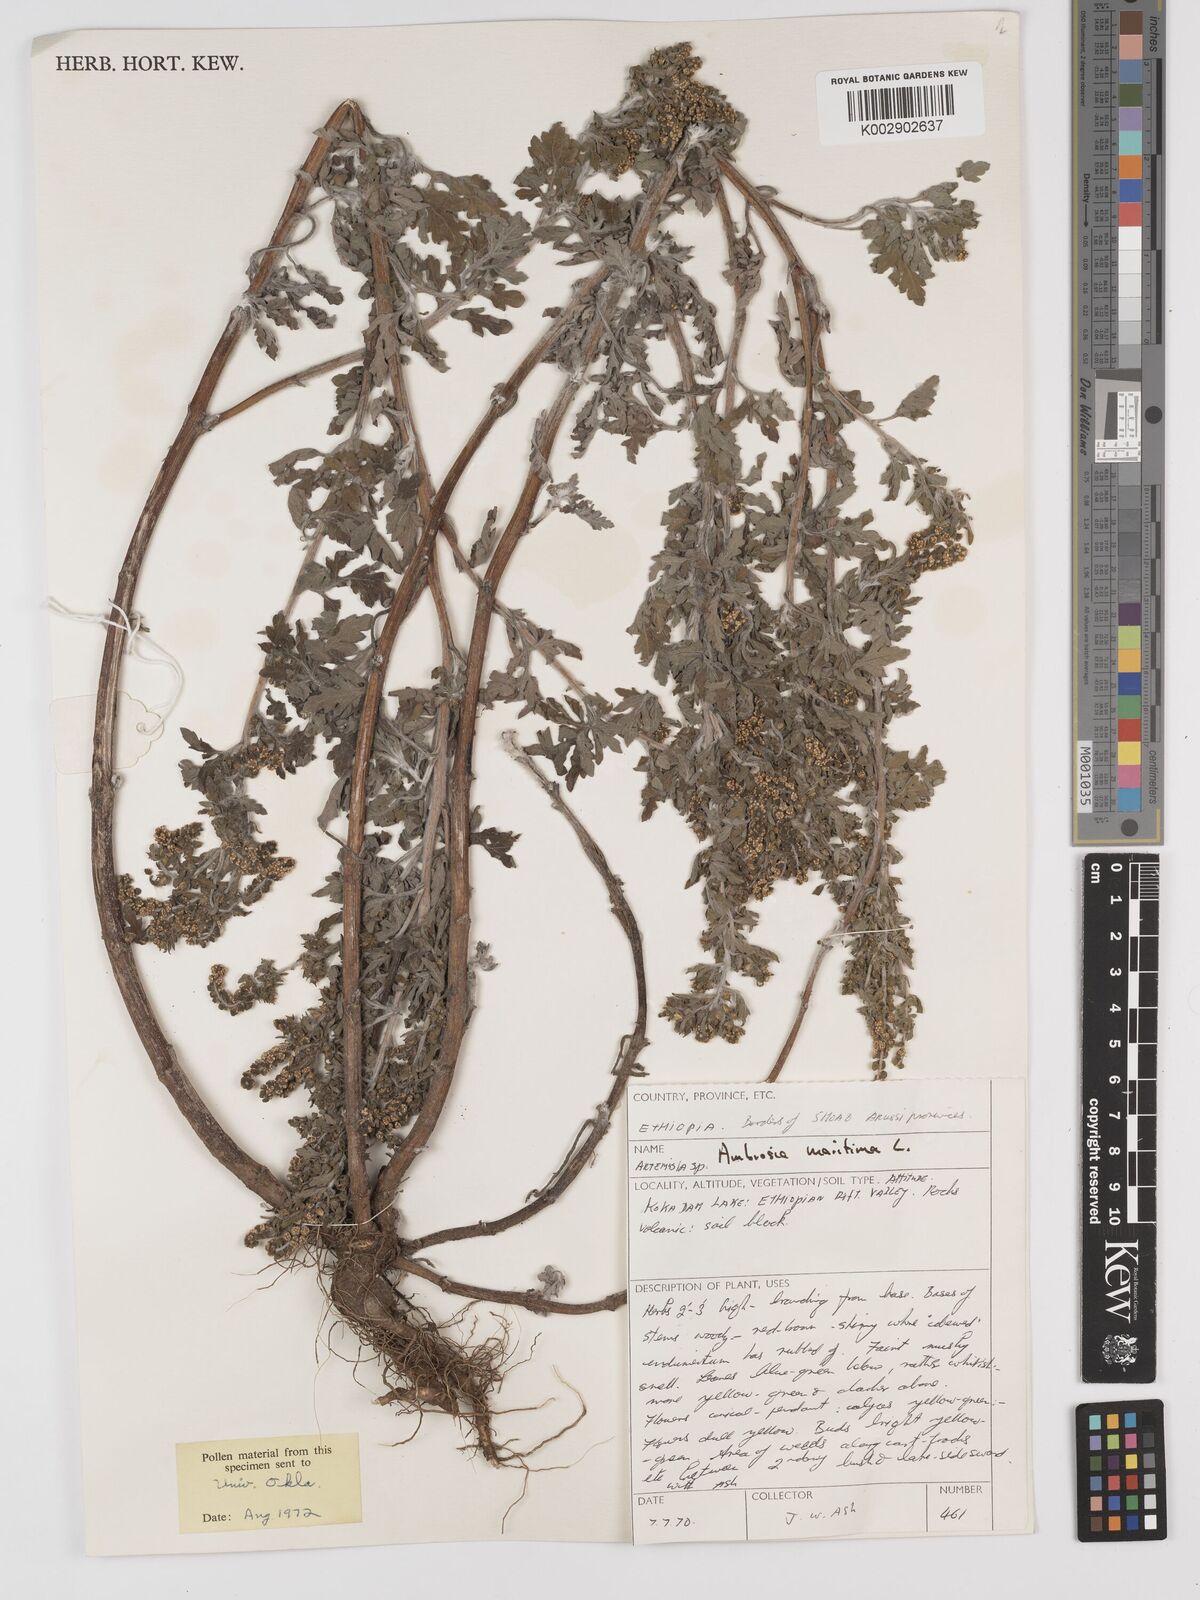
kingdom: Plantae
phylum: Tracheophyta
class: Magnoliopsida
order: Asterales
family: Asteraceae
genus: Ambrosia
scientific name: Ambrosia maritima
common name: Sea ambrosia
